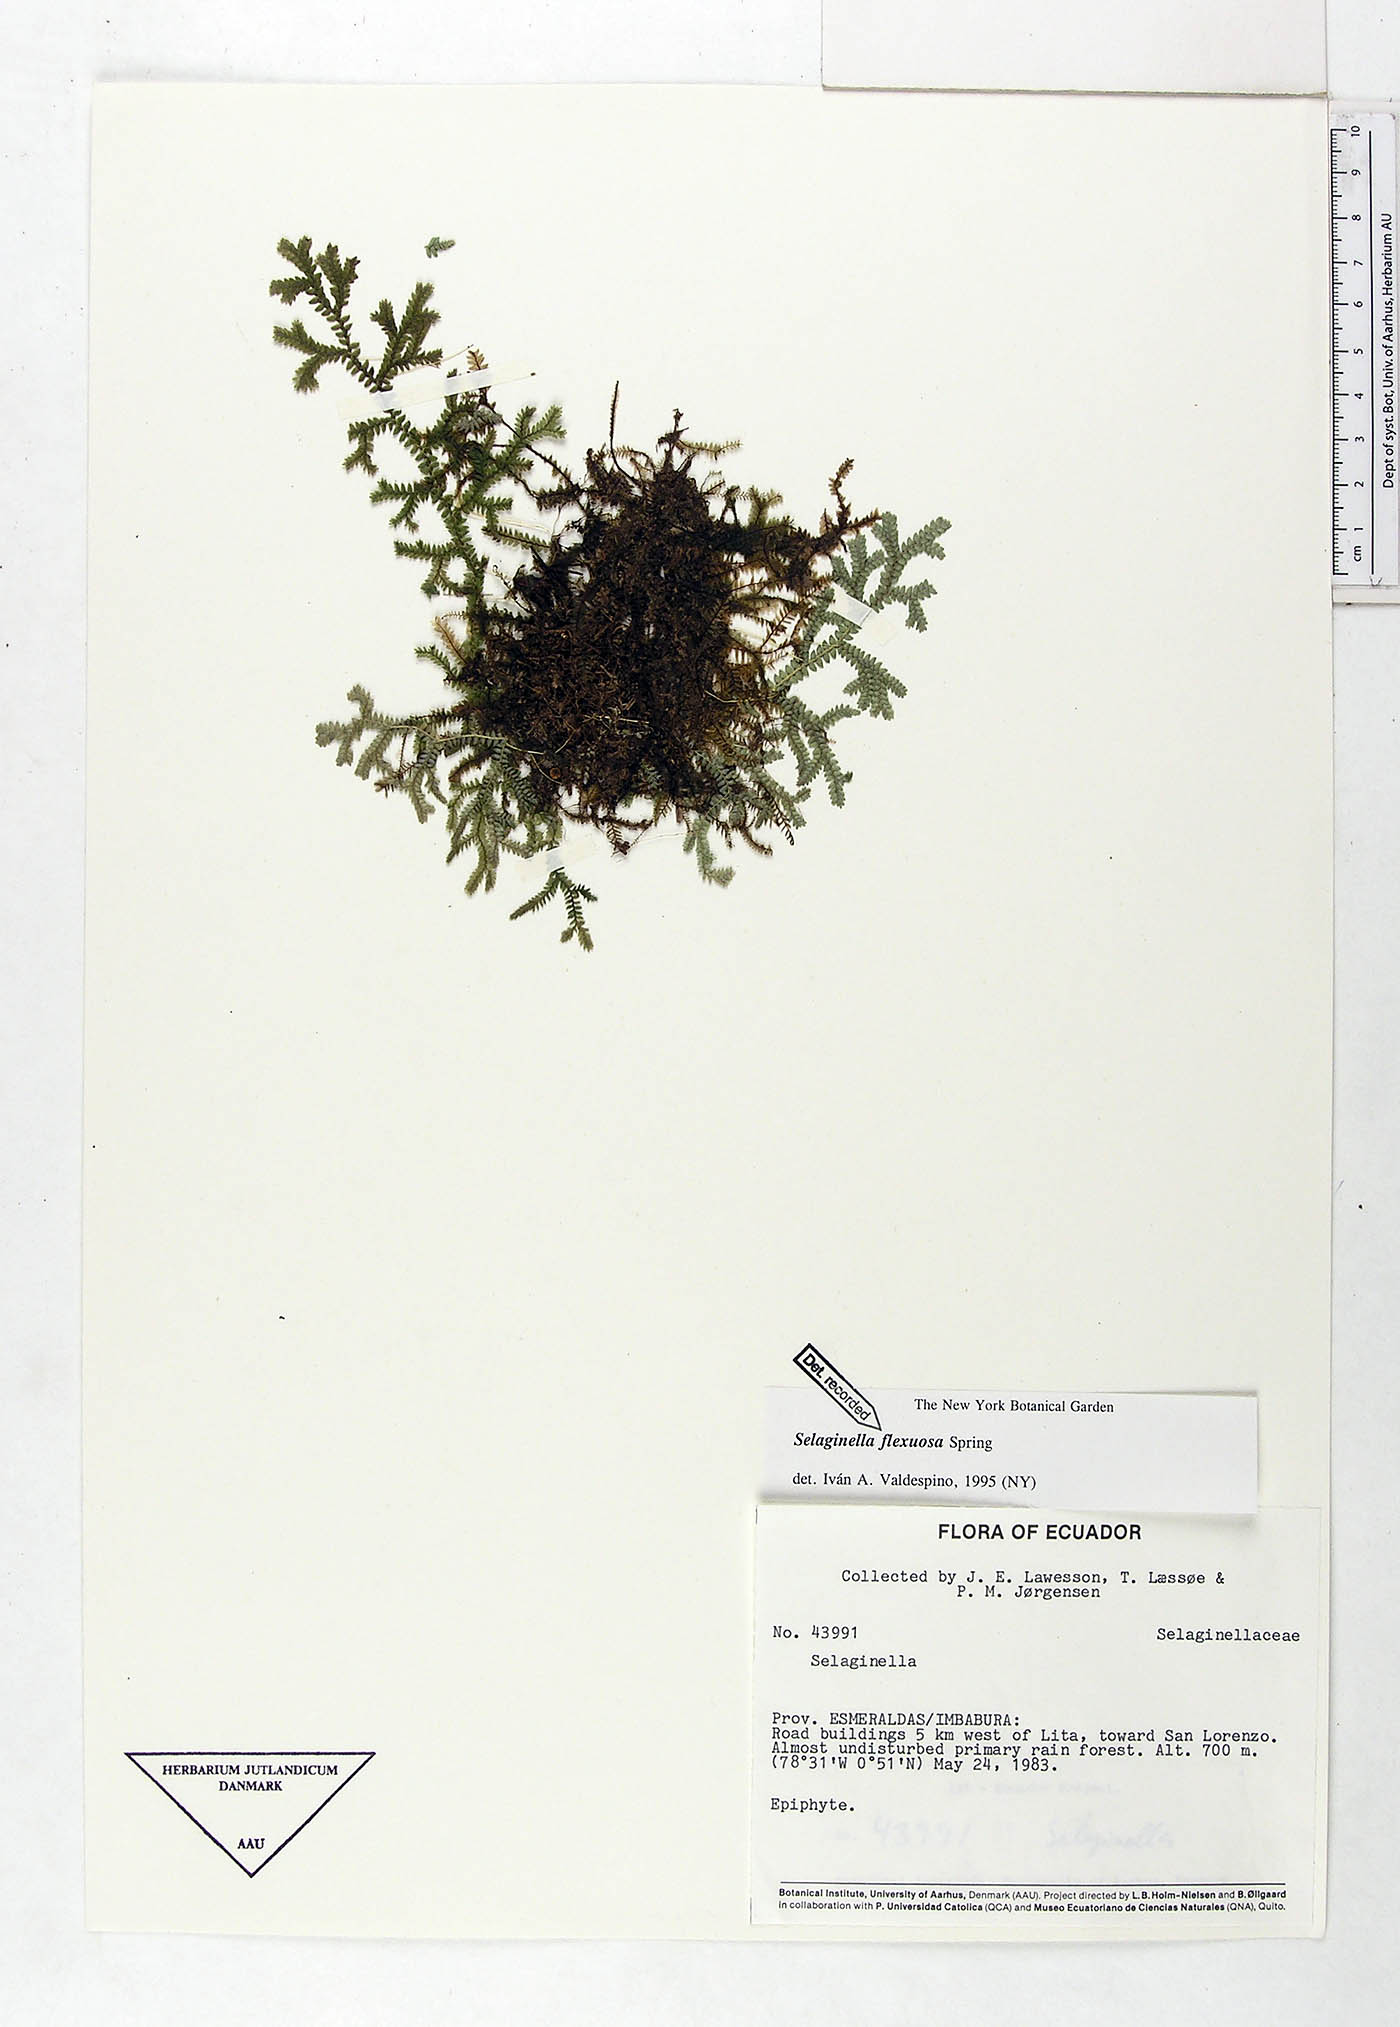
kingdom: Plantae
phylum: Tracheophyta
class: Lycopodiopsida
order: Selaginellales
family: Selaginellaceae
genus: Selaginella
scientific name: Selaginella flexuosa
